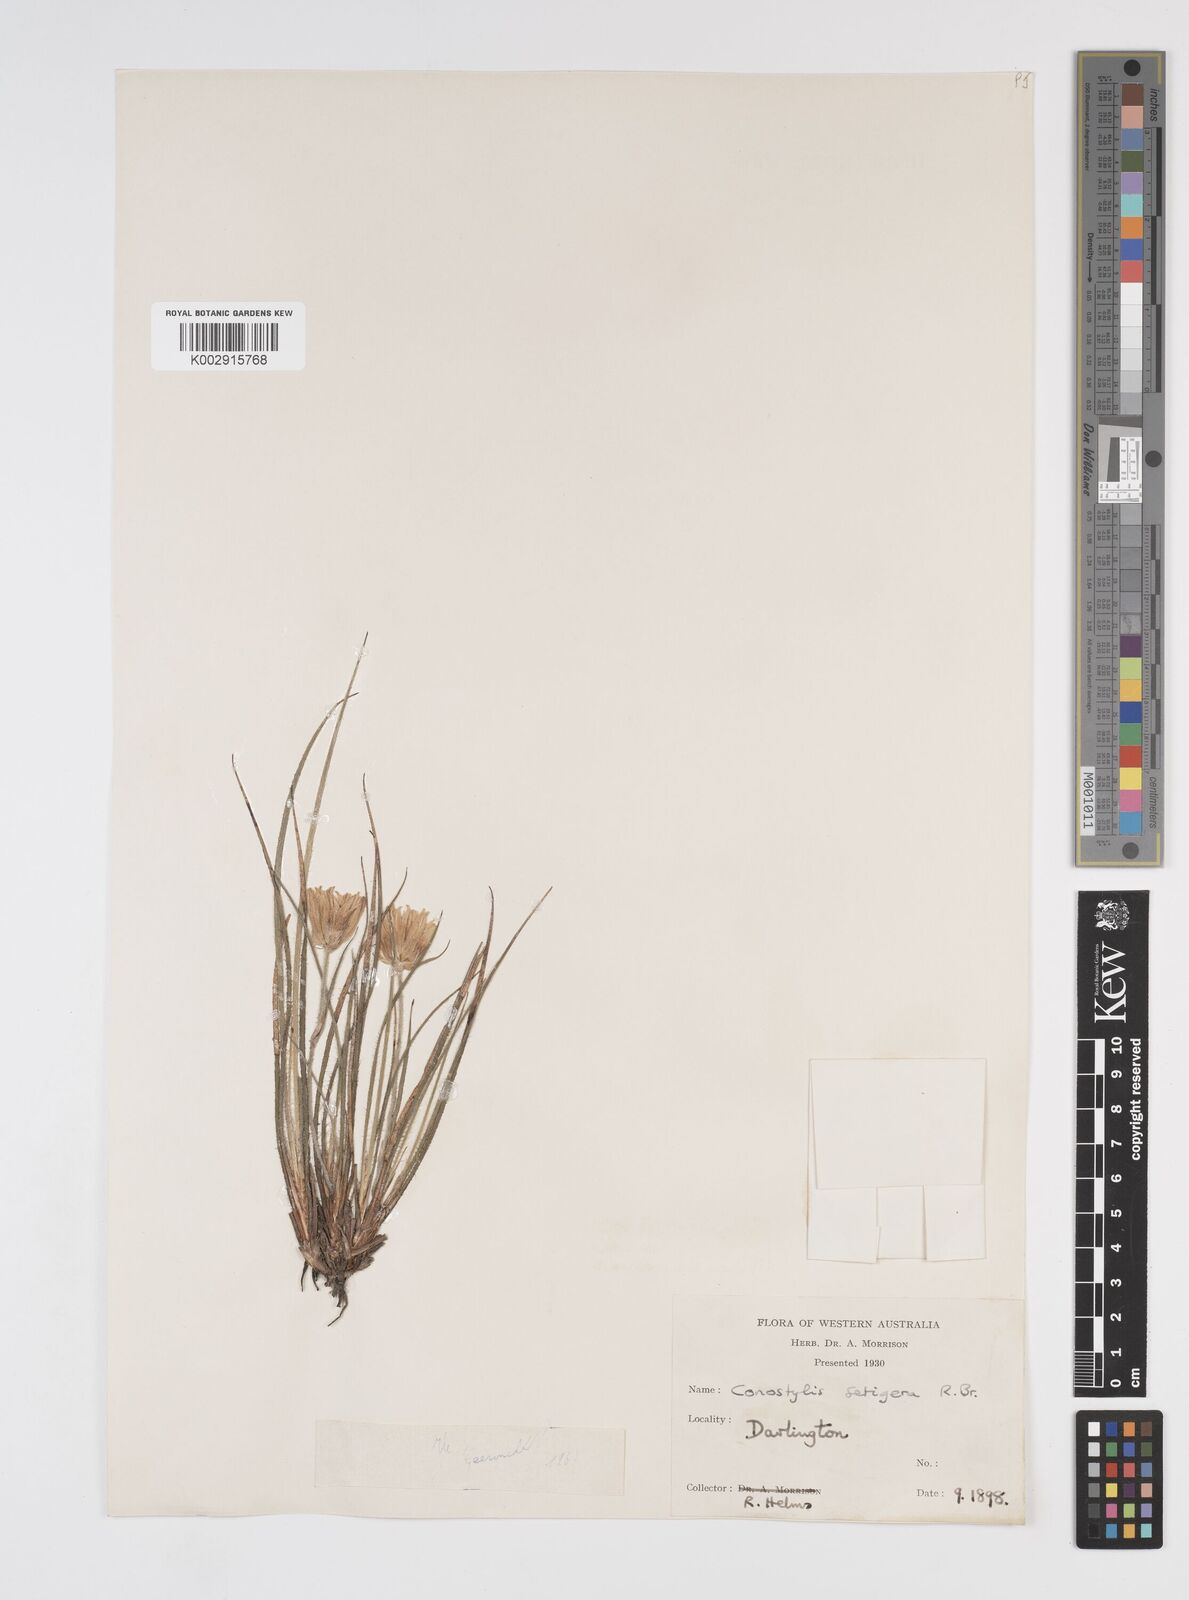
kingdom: Plantae
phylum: Tracheophyta
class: Liliopsida
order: Commelinales
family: Haemodoraceae
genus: Conostylis
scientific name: Conostylis setigera
